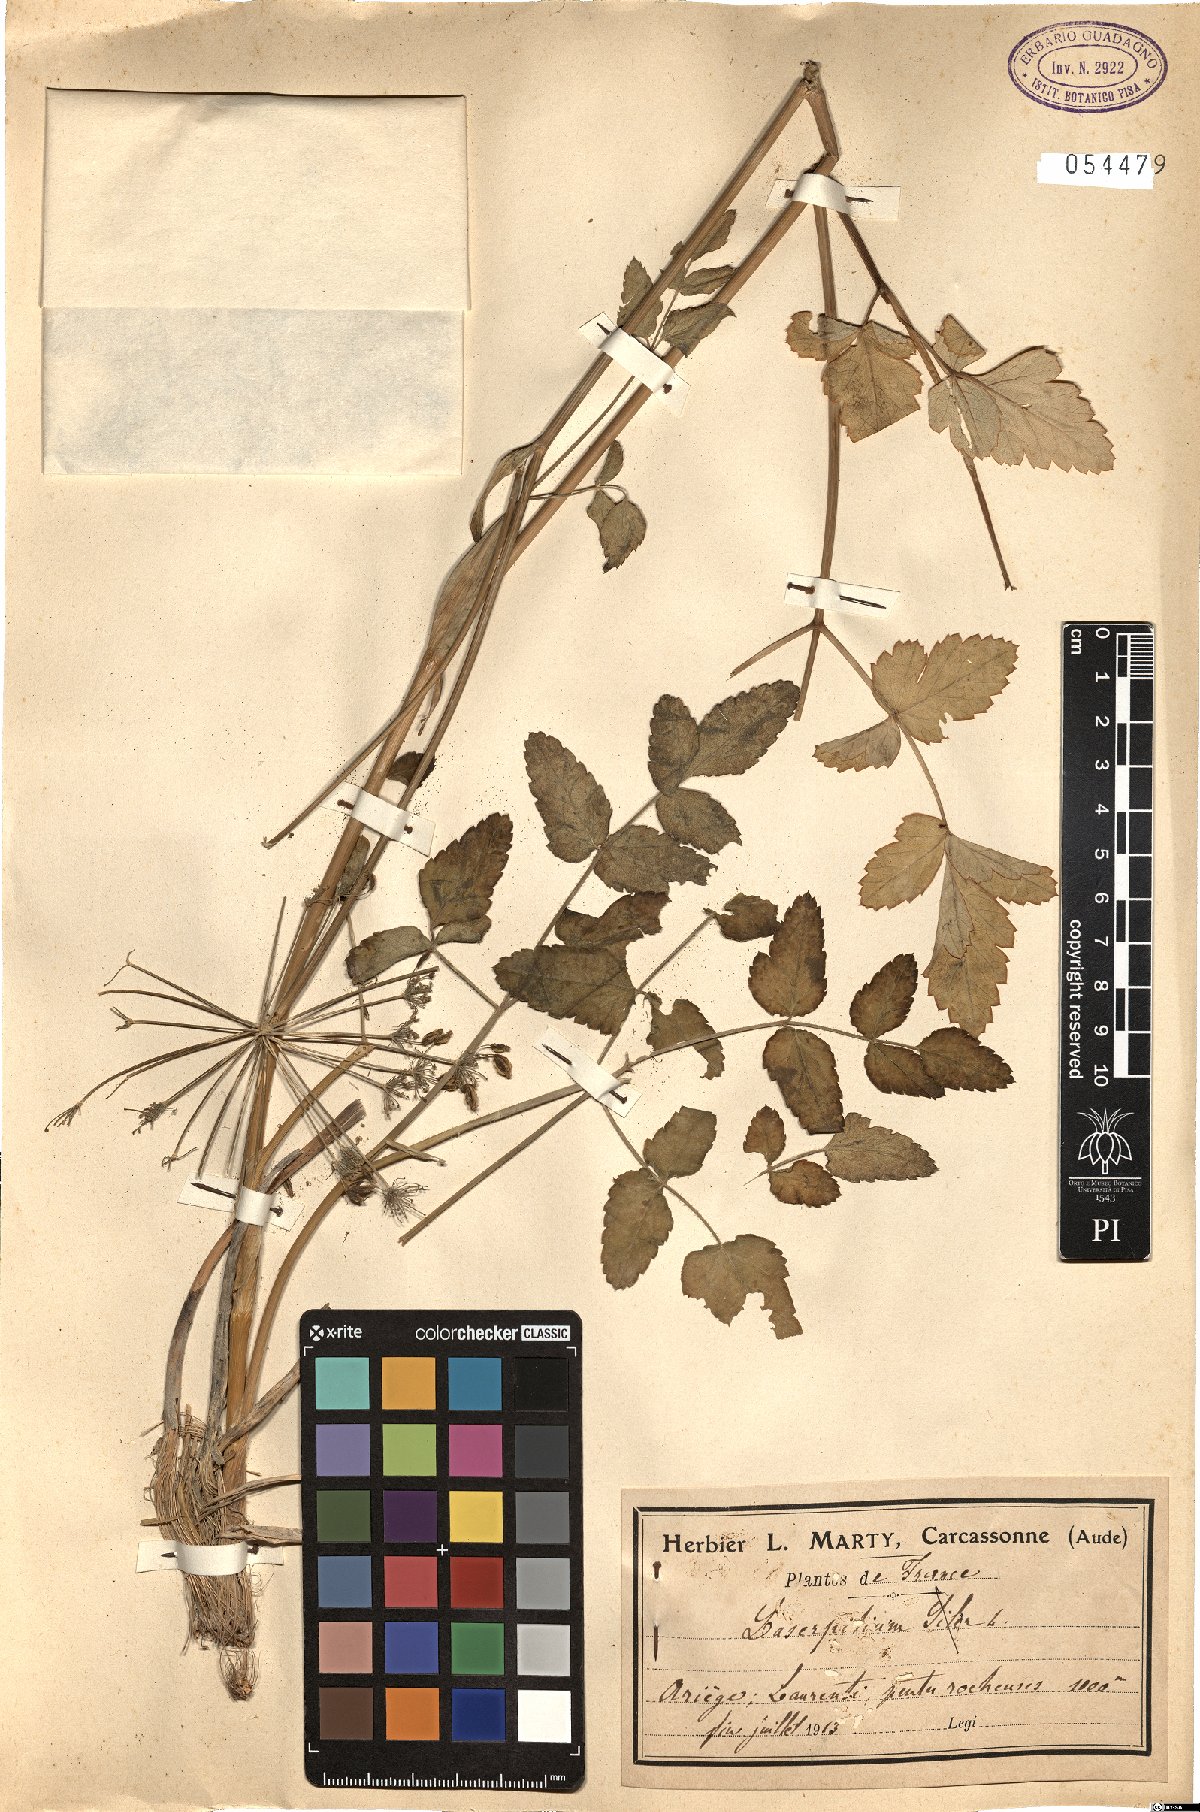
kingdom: Plantae
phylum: Tracheophyta
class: Magnoliopsida
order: Apiales
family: Apiaceae
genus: Siler
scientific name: Siler montanum
